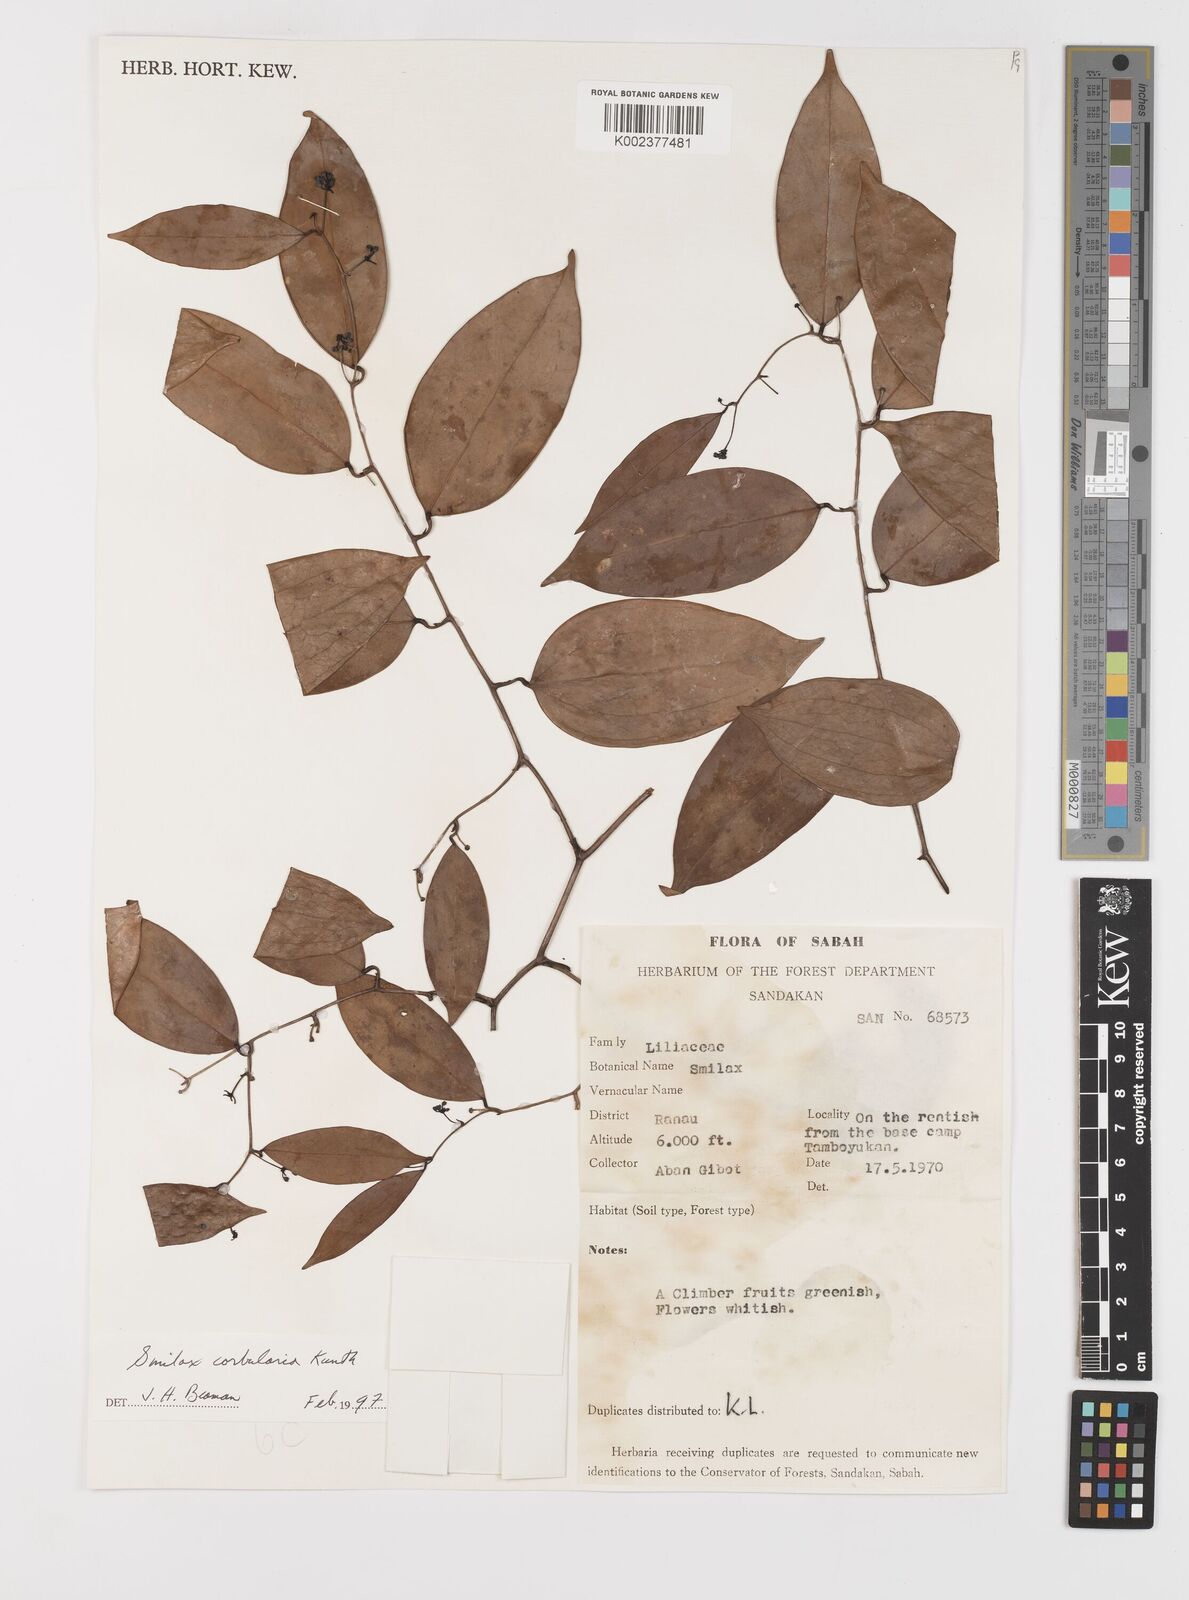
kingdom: Plantae
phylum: Tracheophyta
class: Liliopsida
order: Liliales
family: Smilacaceae
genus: Smilax
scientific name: Smilax corbularia
